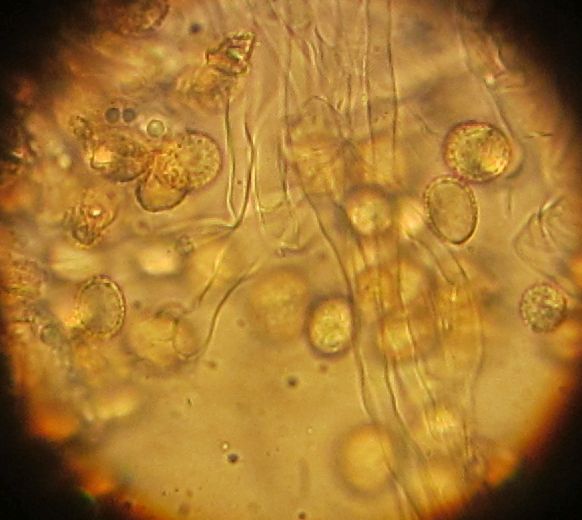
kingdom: Fungi
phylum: Basidiomycota
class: Agaricomycetes
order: Agaricales
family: Crepidotaceae
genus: Crepidotus
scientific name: Crepidotus cesatii
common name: almindelig muslingesvamp
